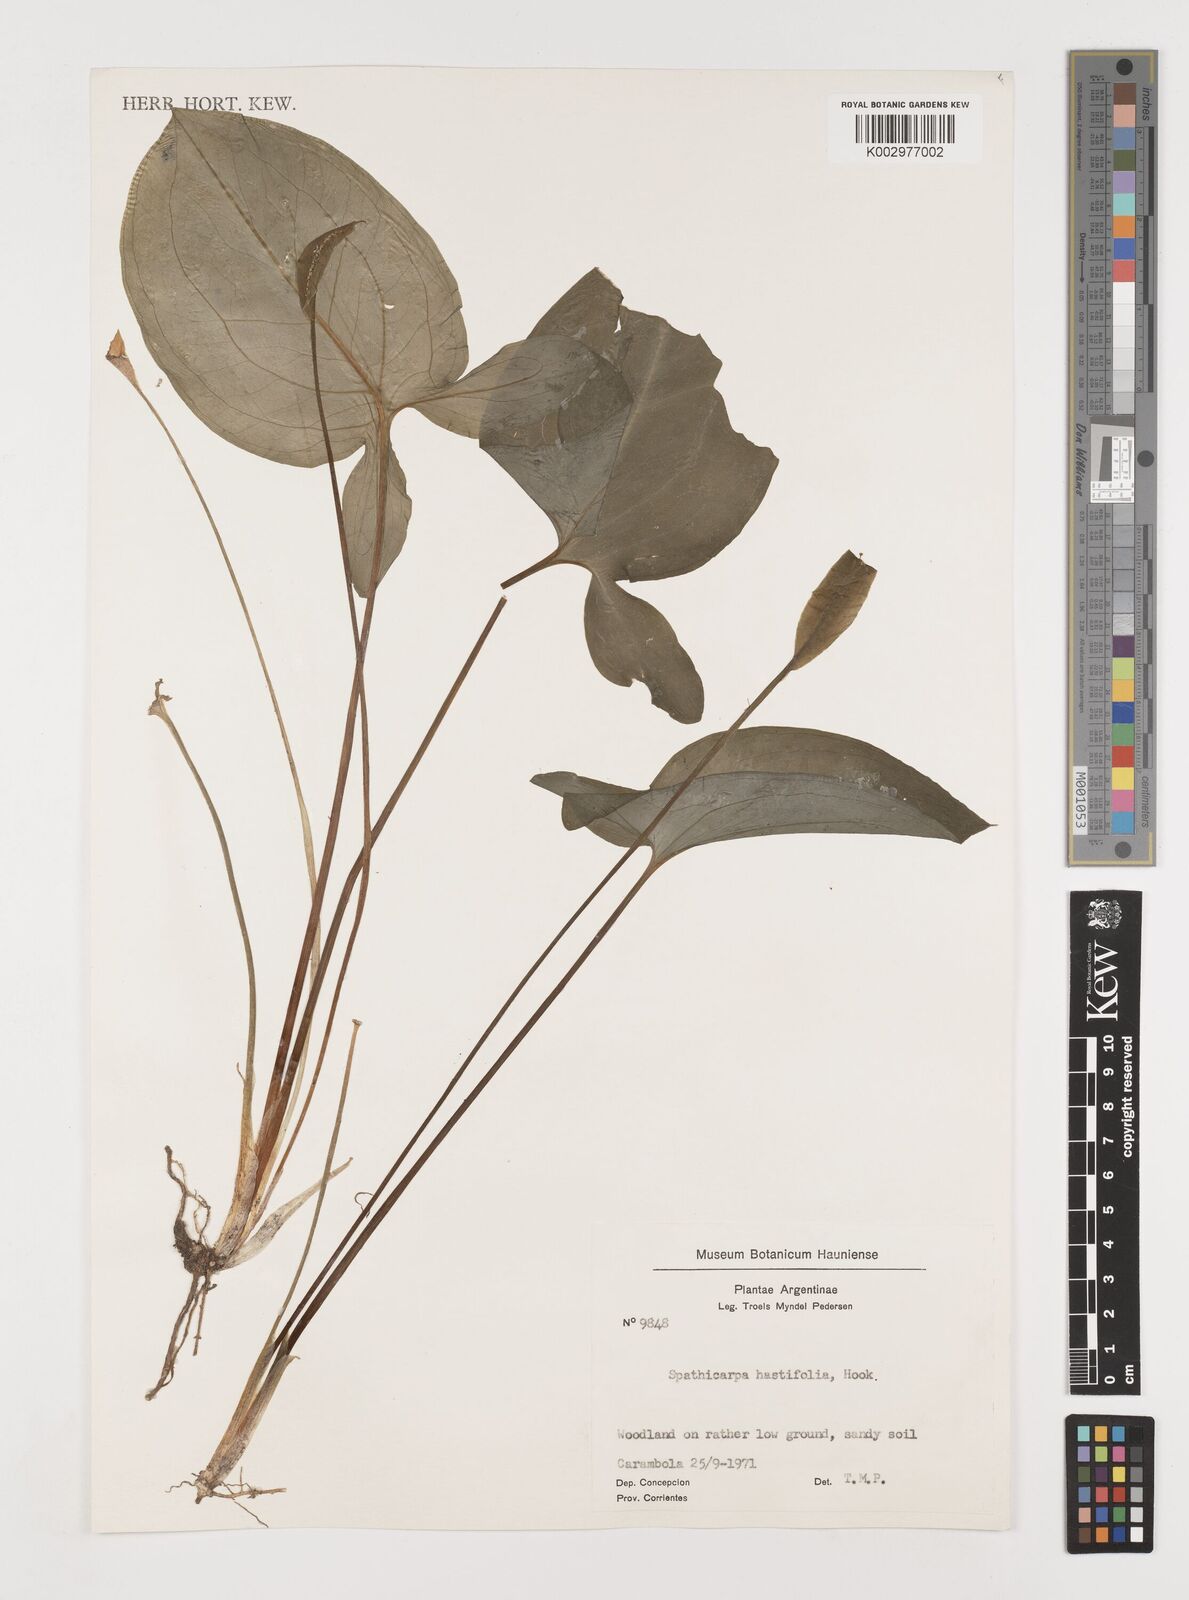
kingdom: Plantae
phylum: Tracheophyta
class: Liliopsida
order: Alismatales
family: Araceae
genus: Spathicarpa
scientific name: Spathicarpa hastifolia
